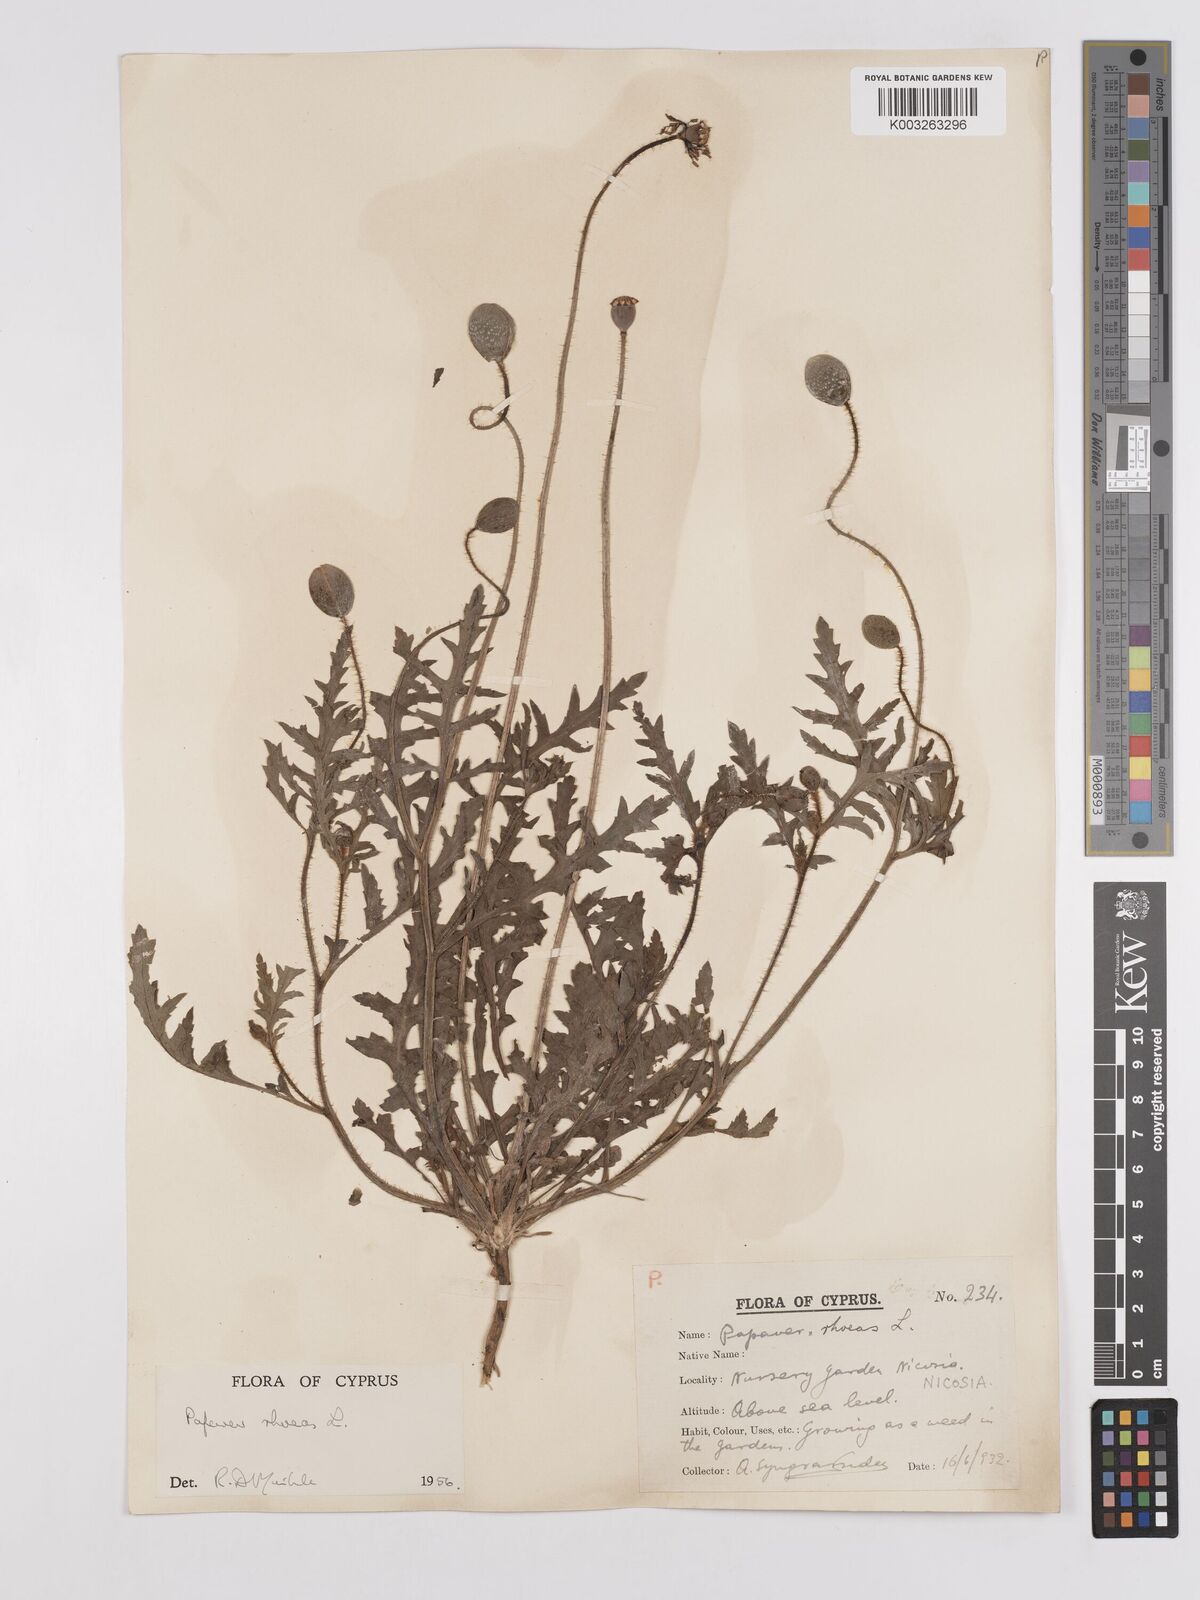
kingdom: Plantae
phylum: Tracheophyta
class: Magnoliopsida
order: Ranunculales
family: Papaveraceae
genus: Papaver
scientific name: Papaver rhoeas
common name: Corn poppy
